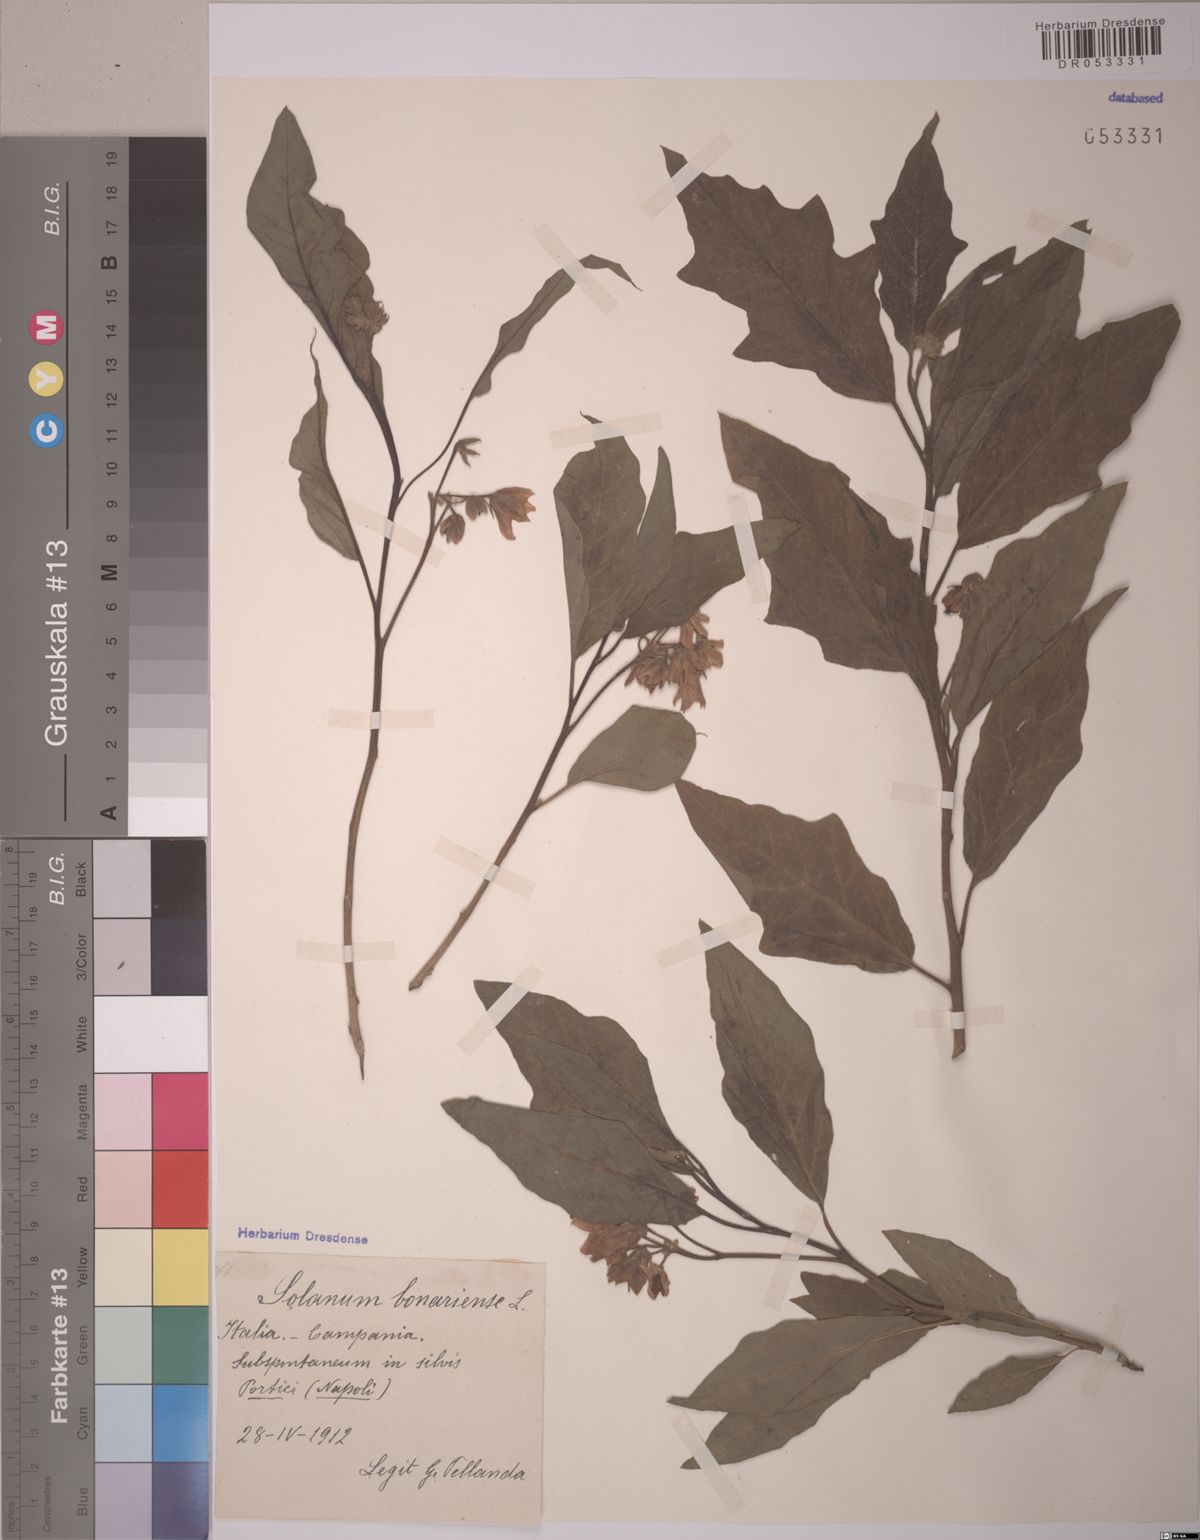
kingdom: Plantae
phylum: Tracheophyta
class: Magnoliopsida
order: Solanales
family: Solanaceae
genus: Solanum
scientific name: Solanum bonariense
